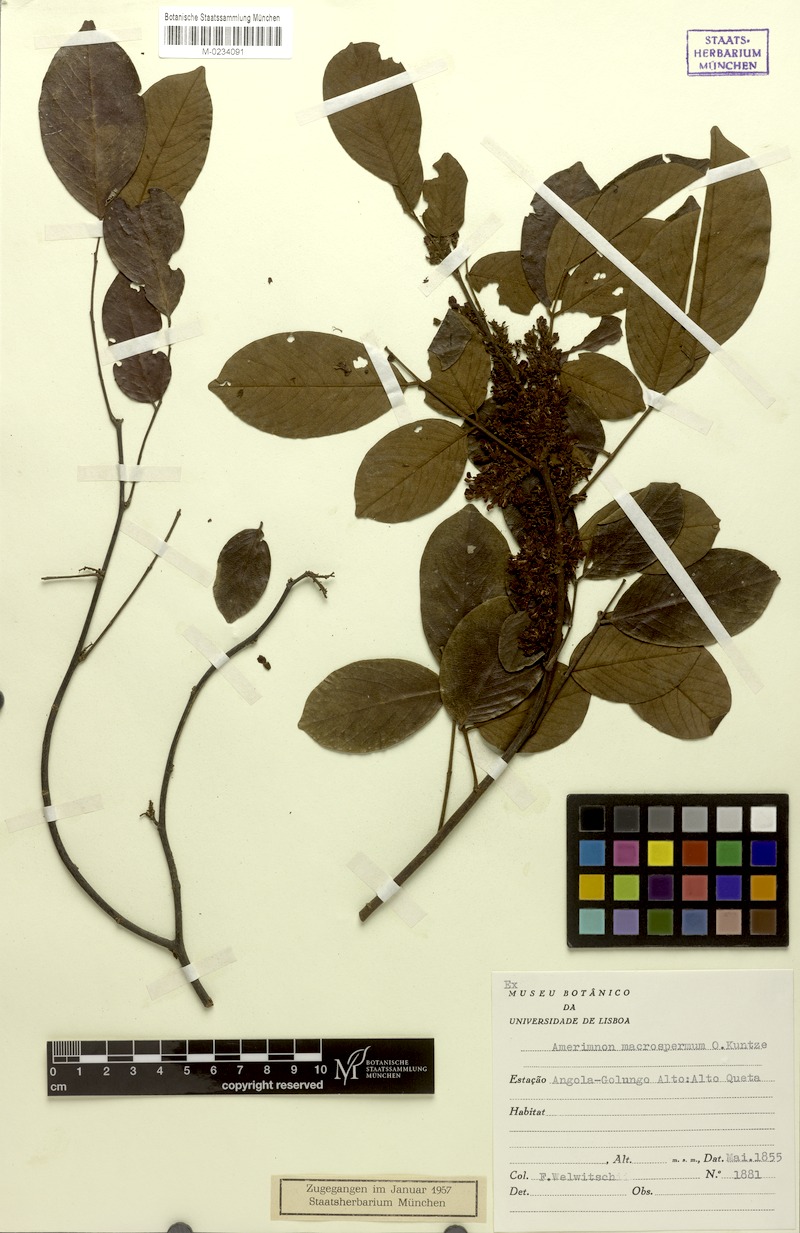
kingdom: Plantae
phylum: Tracheophyta
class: Magnoliopsida
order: Fabales
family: Fabaceae
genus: Dalbergia
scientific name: Dalbergia macrosperma
